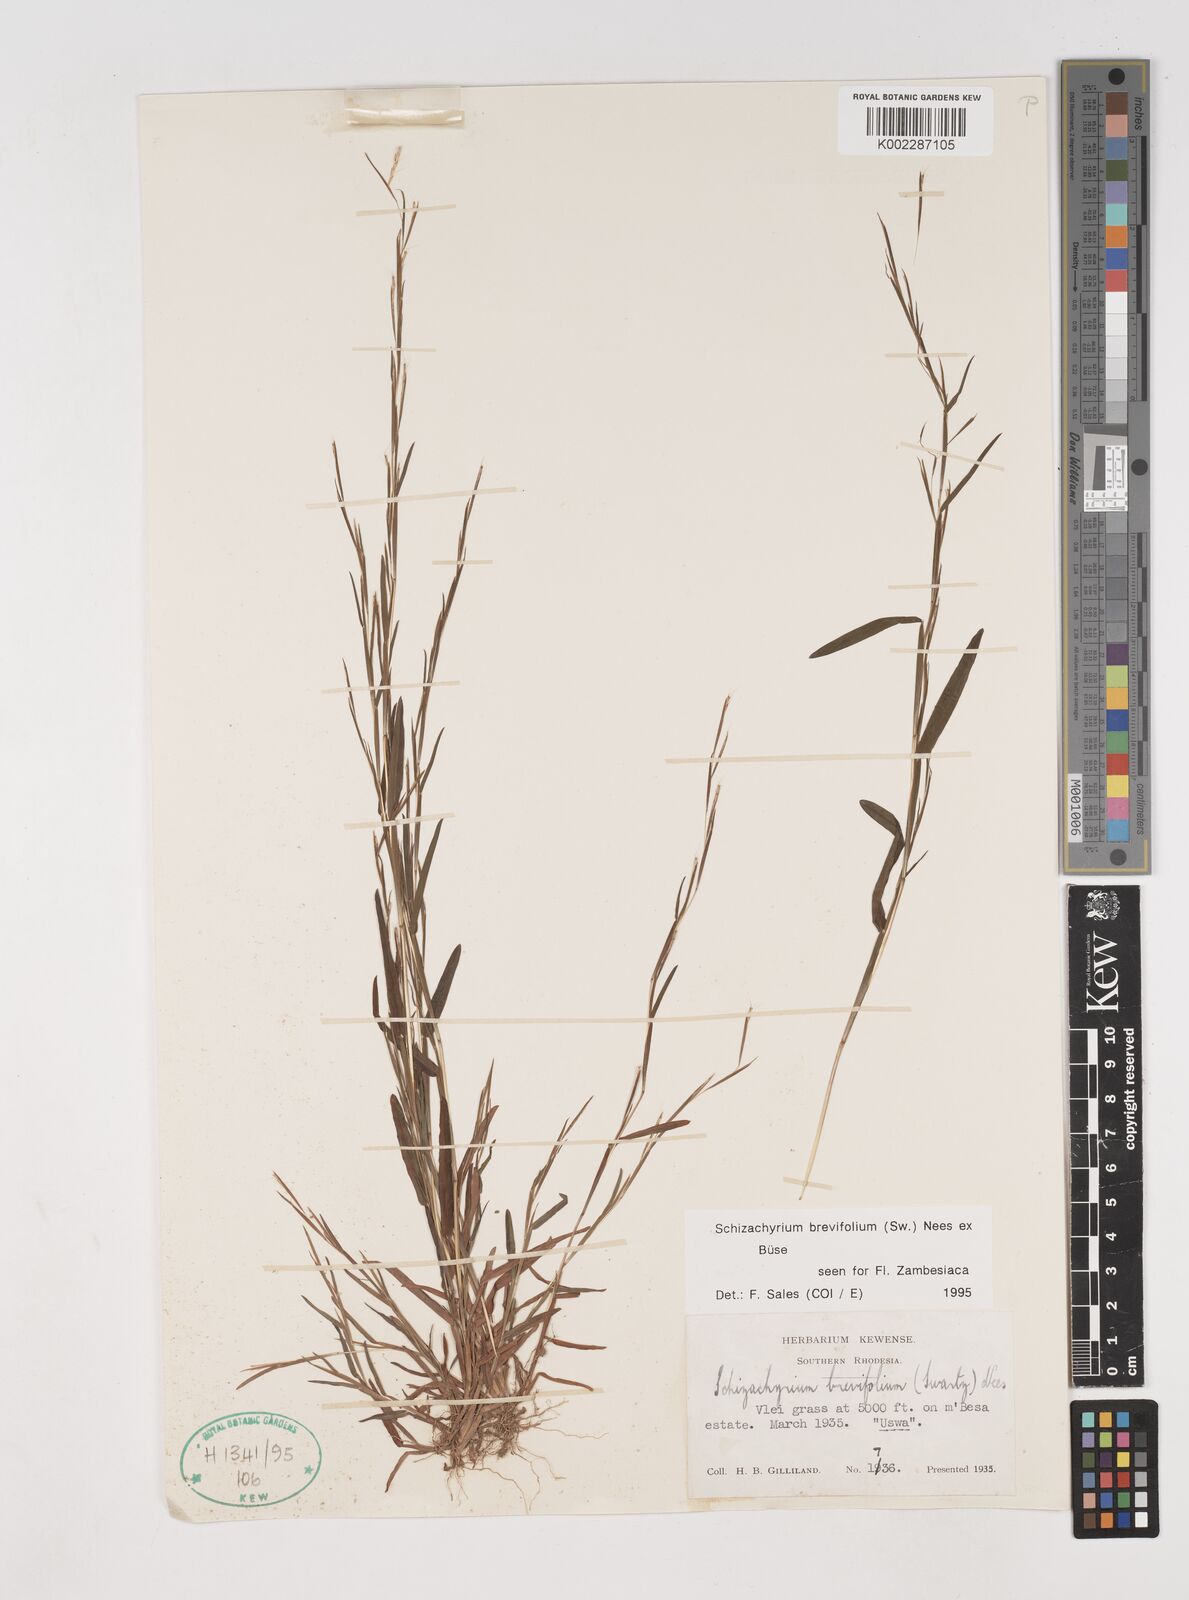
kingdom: Plantae
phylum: Tracheophyta
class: Liliopsida
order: Poales
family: Poaceae
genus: Schizachyrium
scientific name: Schizachyrium brevifolium
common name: Serillo dulce
